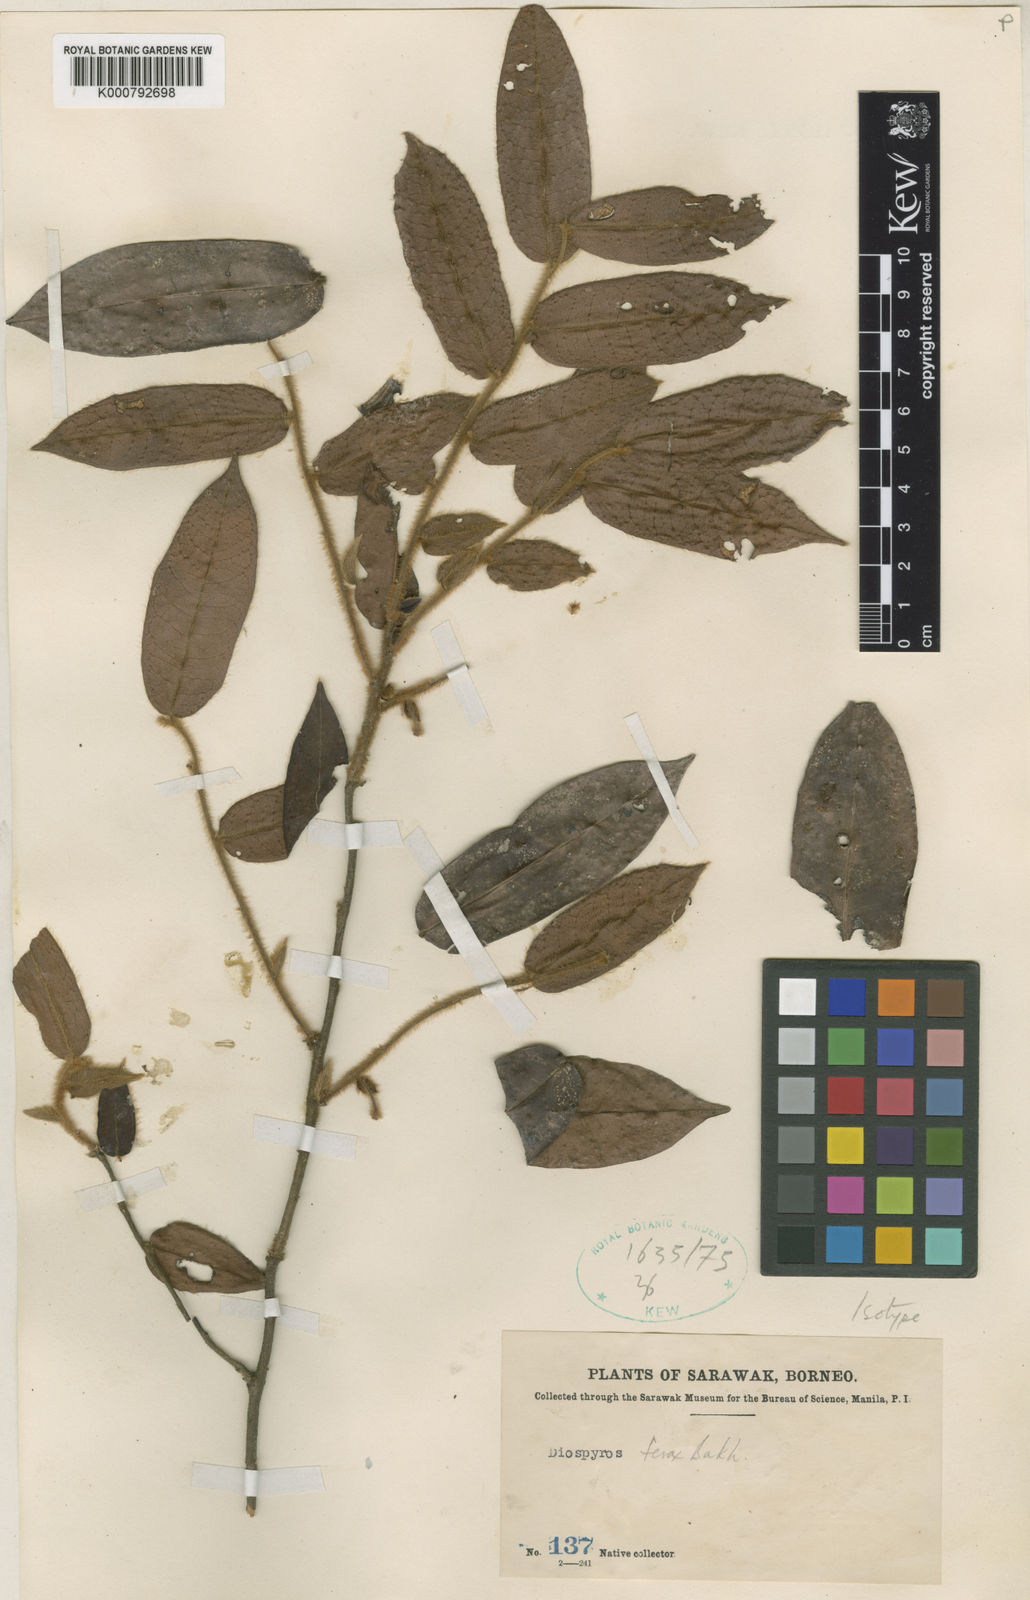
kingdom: Plantae
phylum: Tracheophyta
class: Magnoliopsida
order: Ericales
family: Ebenaceae
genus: Diospyros
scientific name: Diospyros ferox
